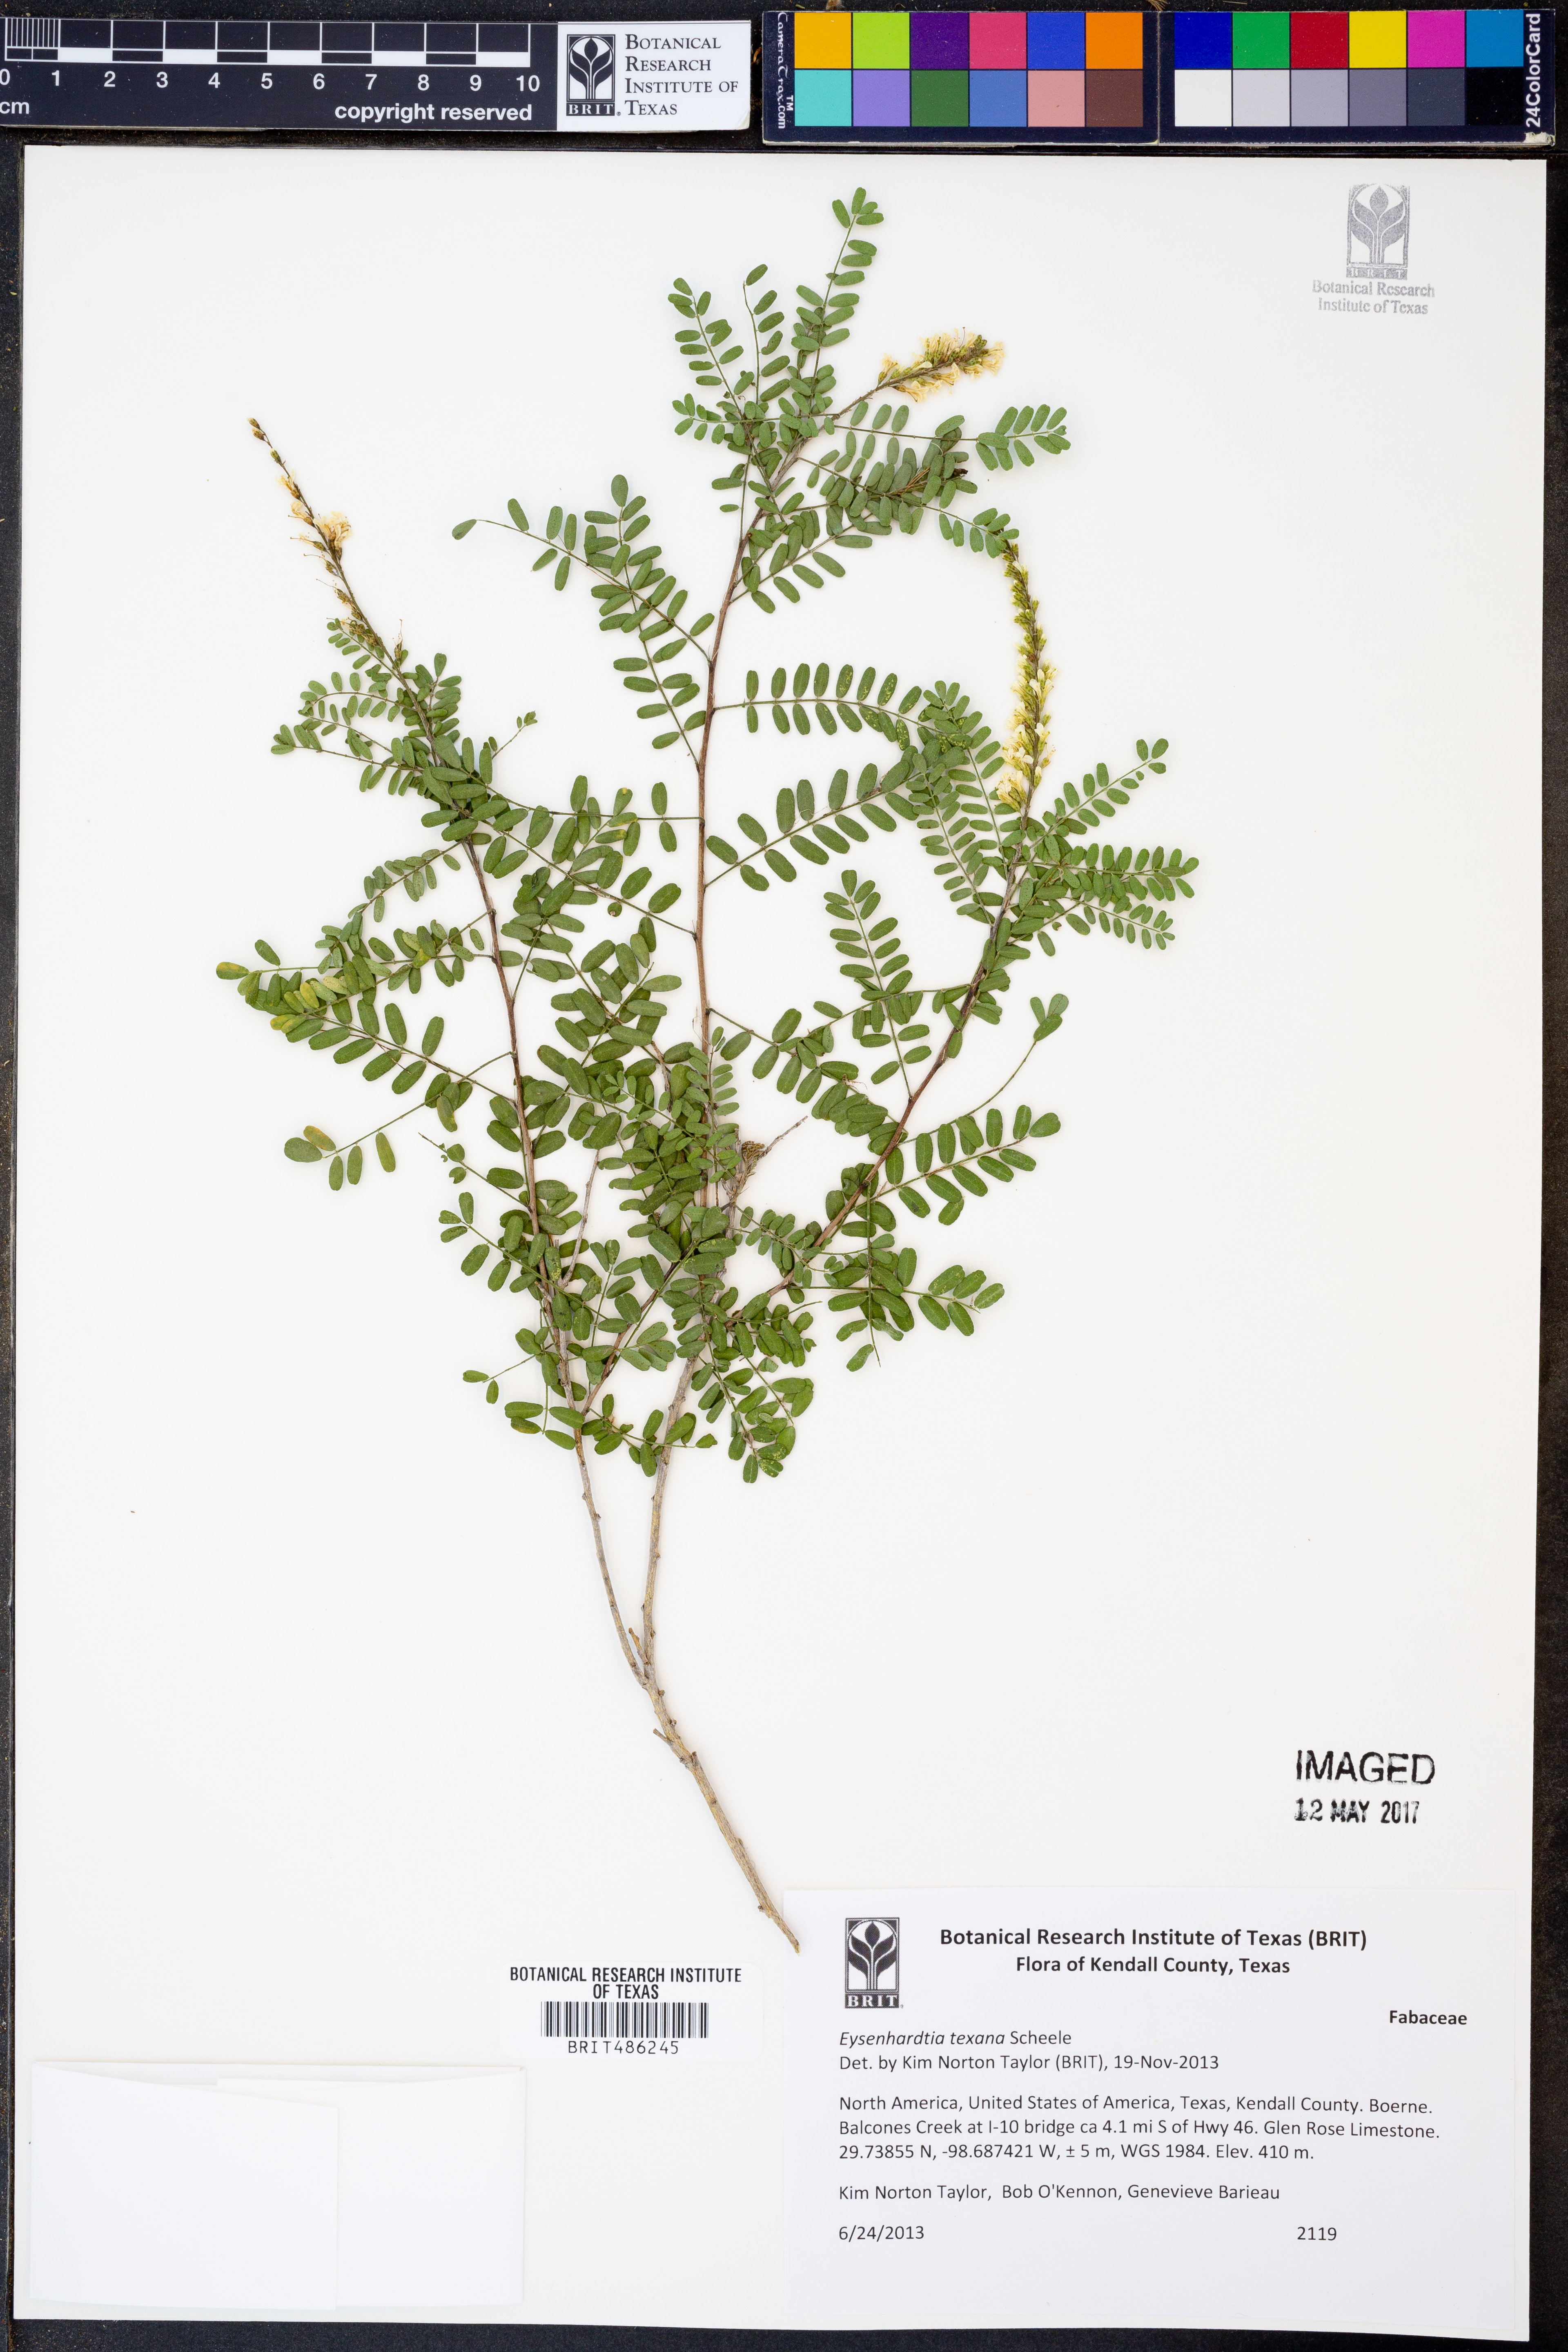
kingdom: Plantae
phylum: Tracheophyta
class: Magnoliopsida
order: Fabales
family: Fabaceae
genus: Eysenhardtia
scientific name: Eysenhardtia texana
